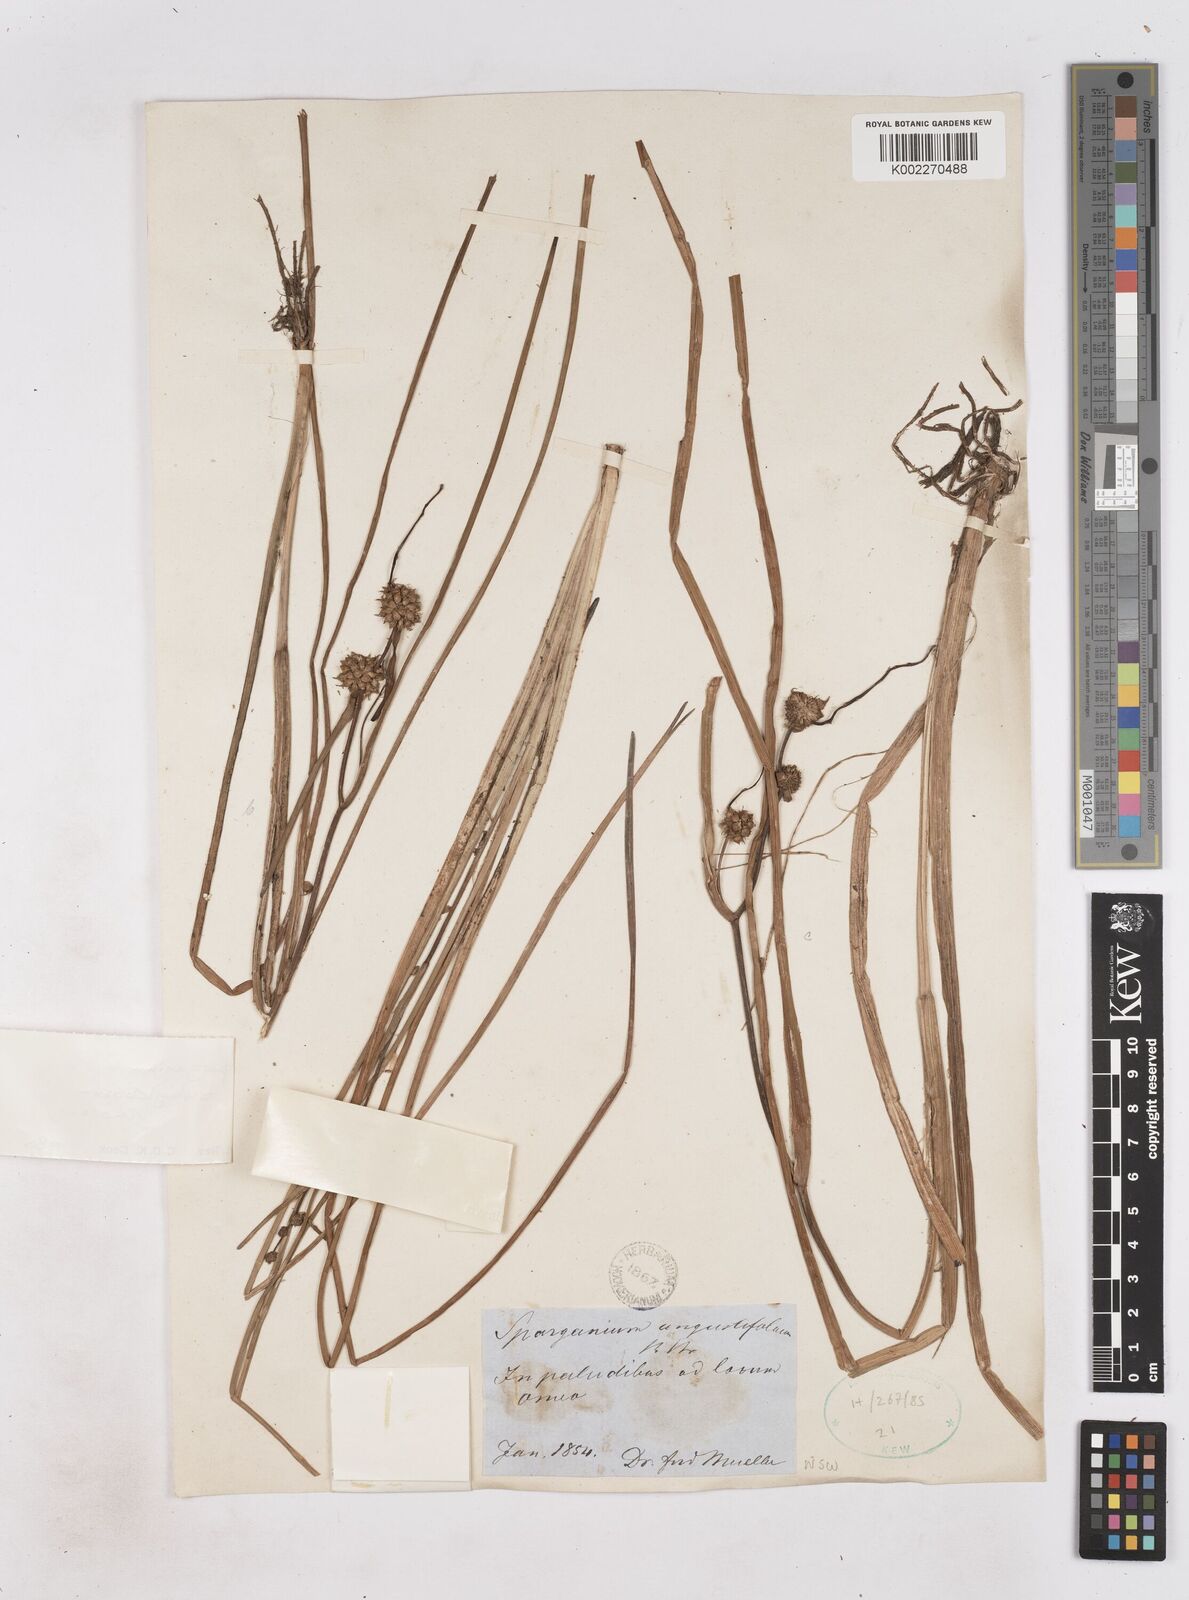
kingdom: Plantae
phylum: Tracheophyta
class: Liliopsida
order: Poales
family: Typhaceae
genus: Sparganium
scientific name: Sparganium subglobosum
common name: Burr­-reed
